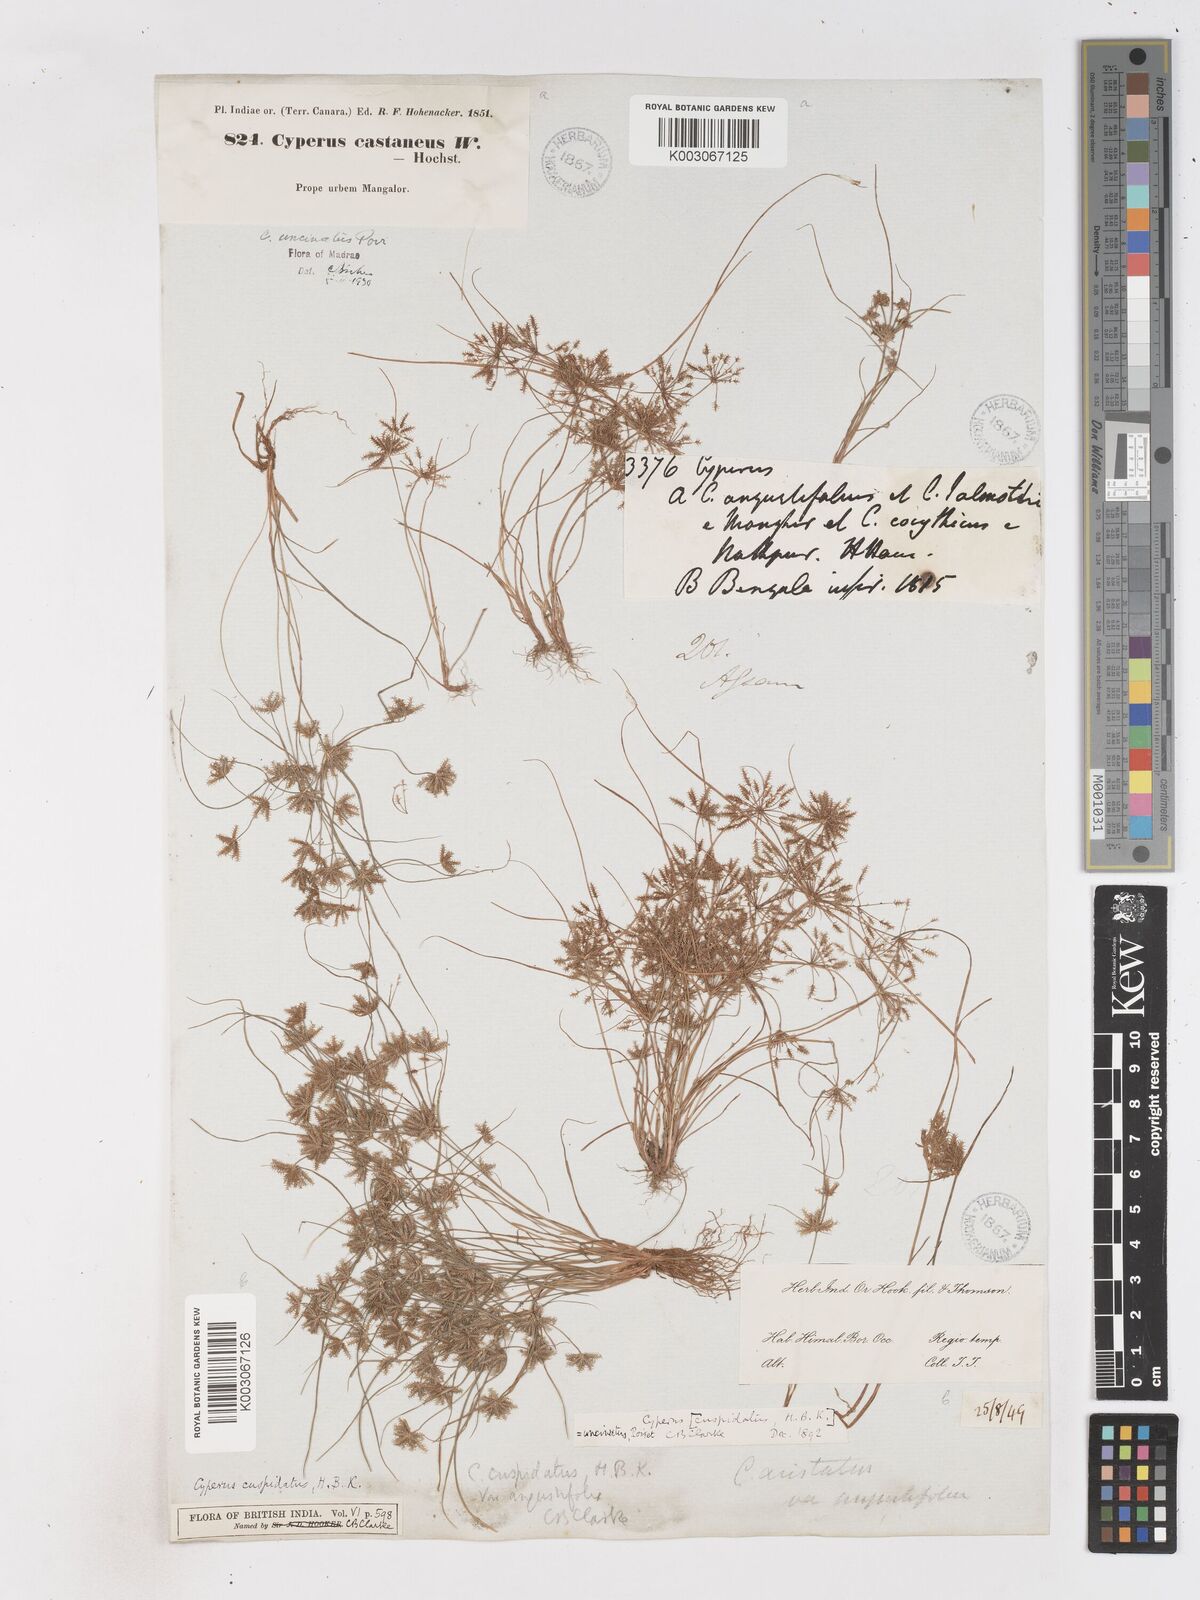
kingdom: Plantae
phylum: Tracheophyta
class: Liliopsida
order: Poales
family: Cyperaceae
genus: Cyperus
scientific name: Cyperus cuspidatus
